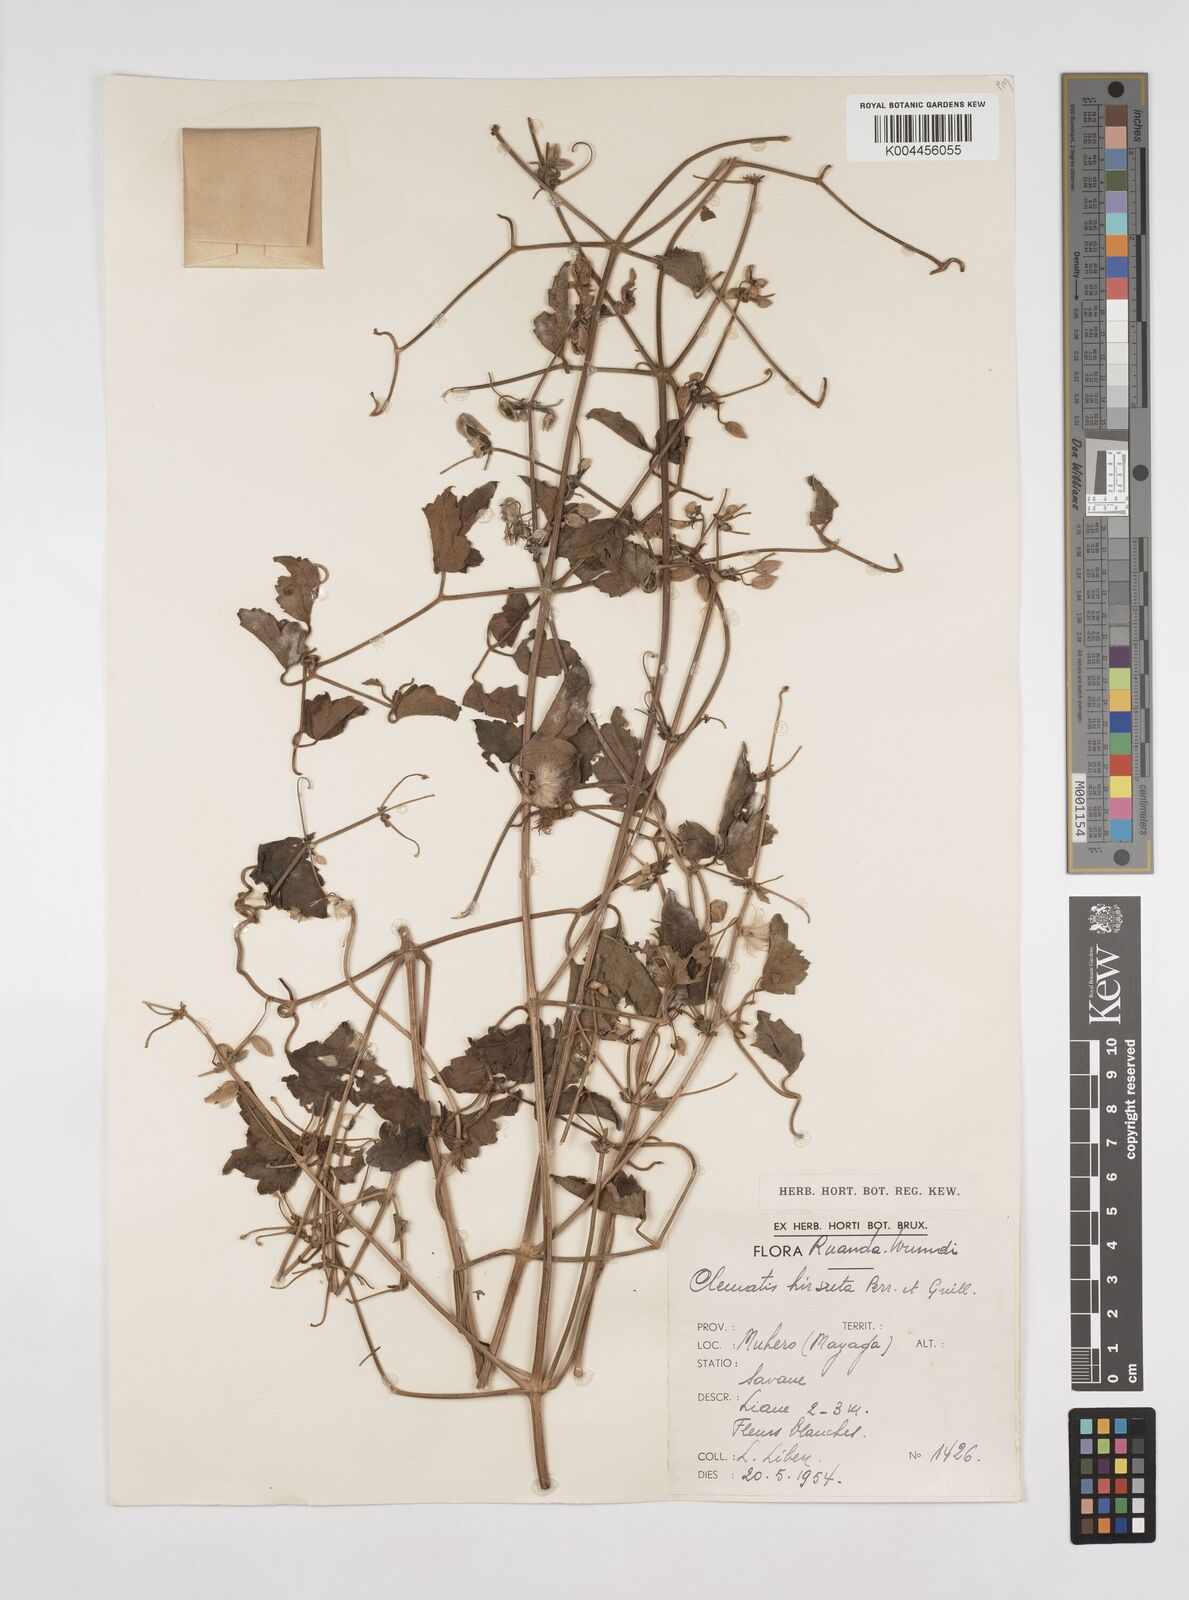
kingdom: Plantae
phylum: Tracheophyta
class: Magnoliopsida
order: Ranunculales
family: Ranunculaceae
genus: Clematis
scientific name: Clematis hirsuta
